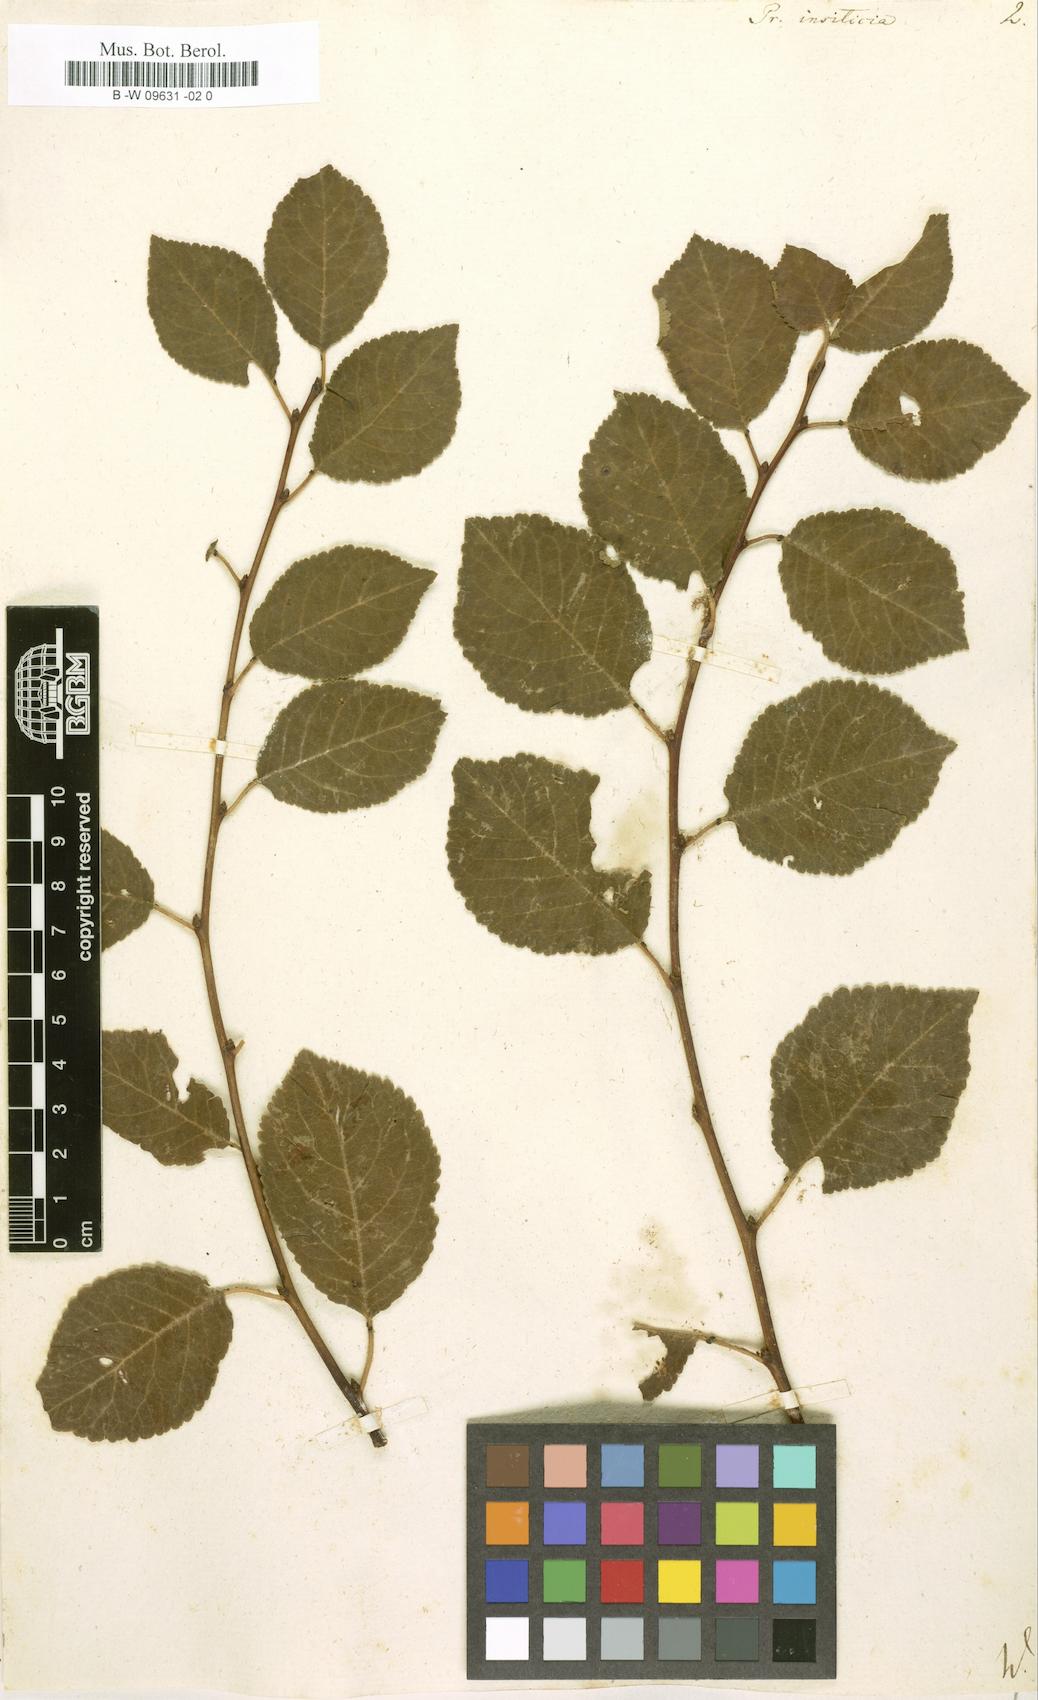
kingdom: Plantae
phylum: Tracheophyta
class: Magnoliopsida
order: Rosales
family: Rosaceae
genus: Prunus
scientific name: Prunus
